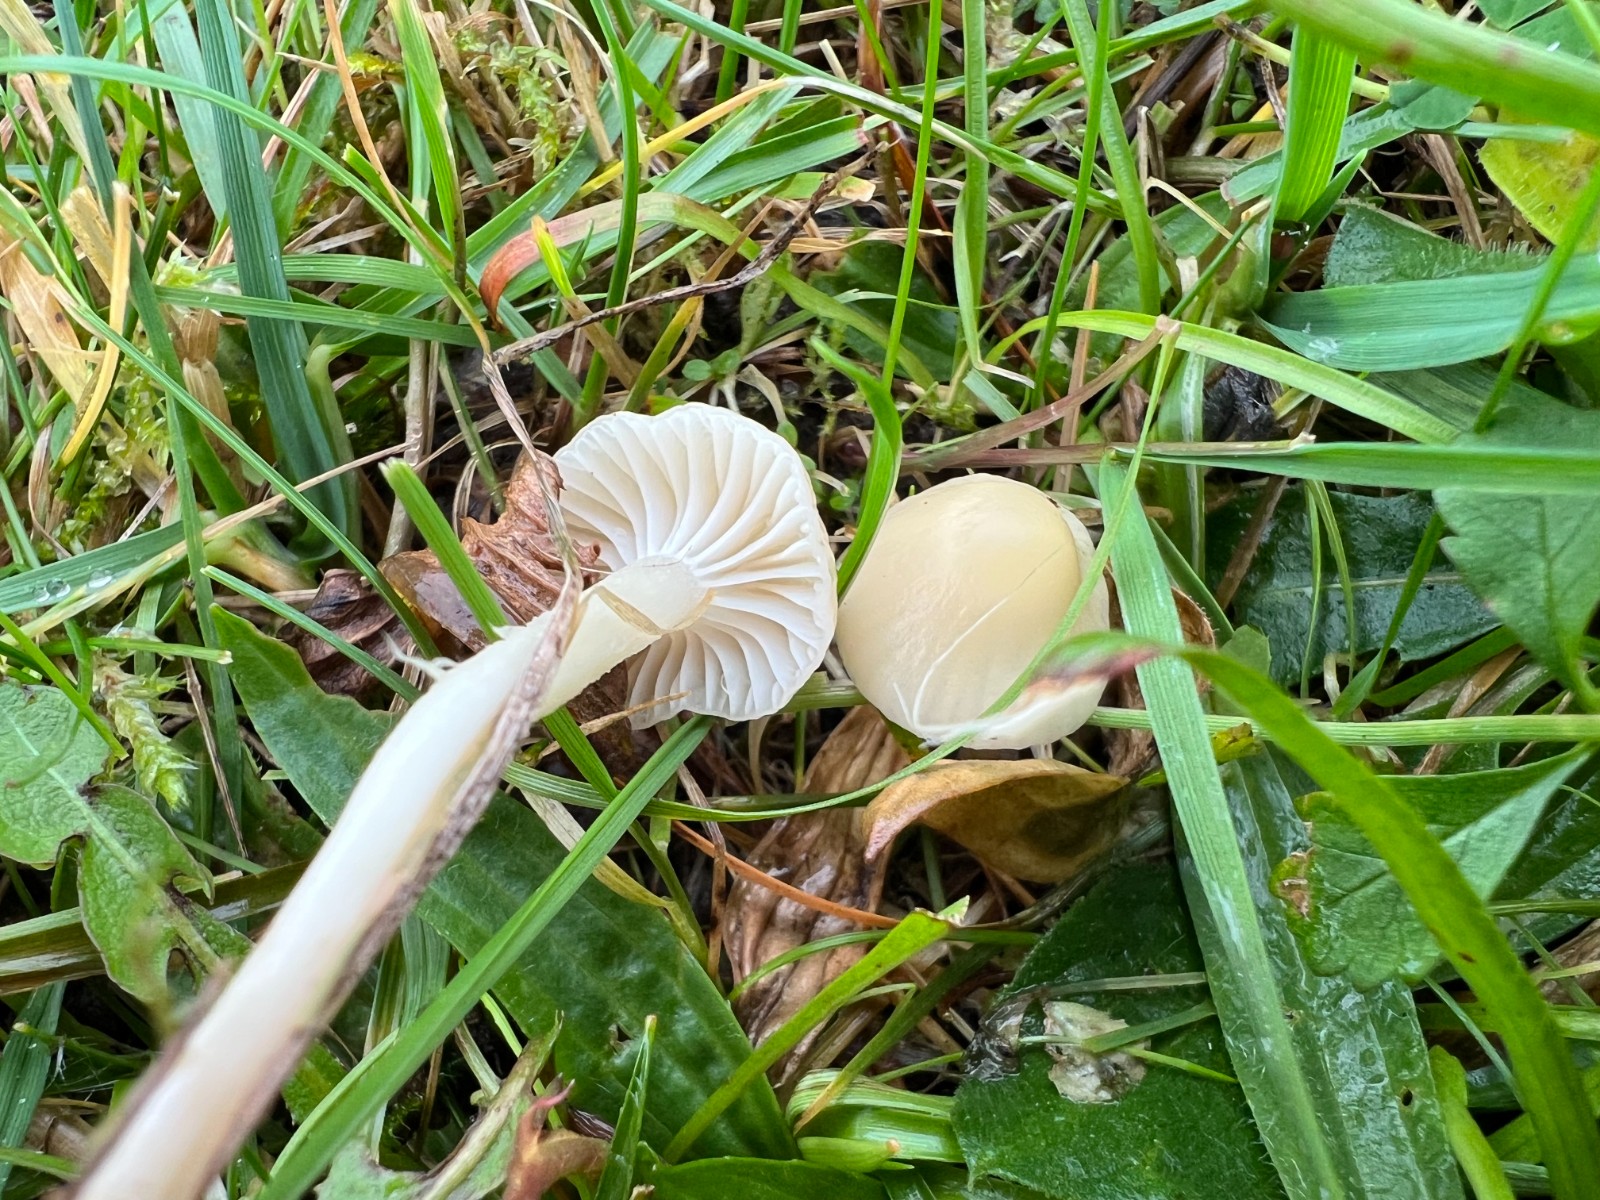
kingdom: Fungi
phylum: Basidiomycota
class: Agaricomycetes
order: Agaricales
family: Hygrophoraceae
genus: Cuphophyllus
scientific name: Cuphophyllus russocoriaceus
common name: ruslæder-vokshat
